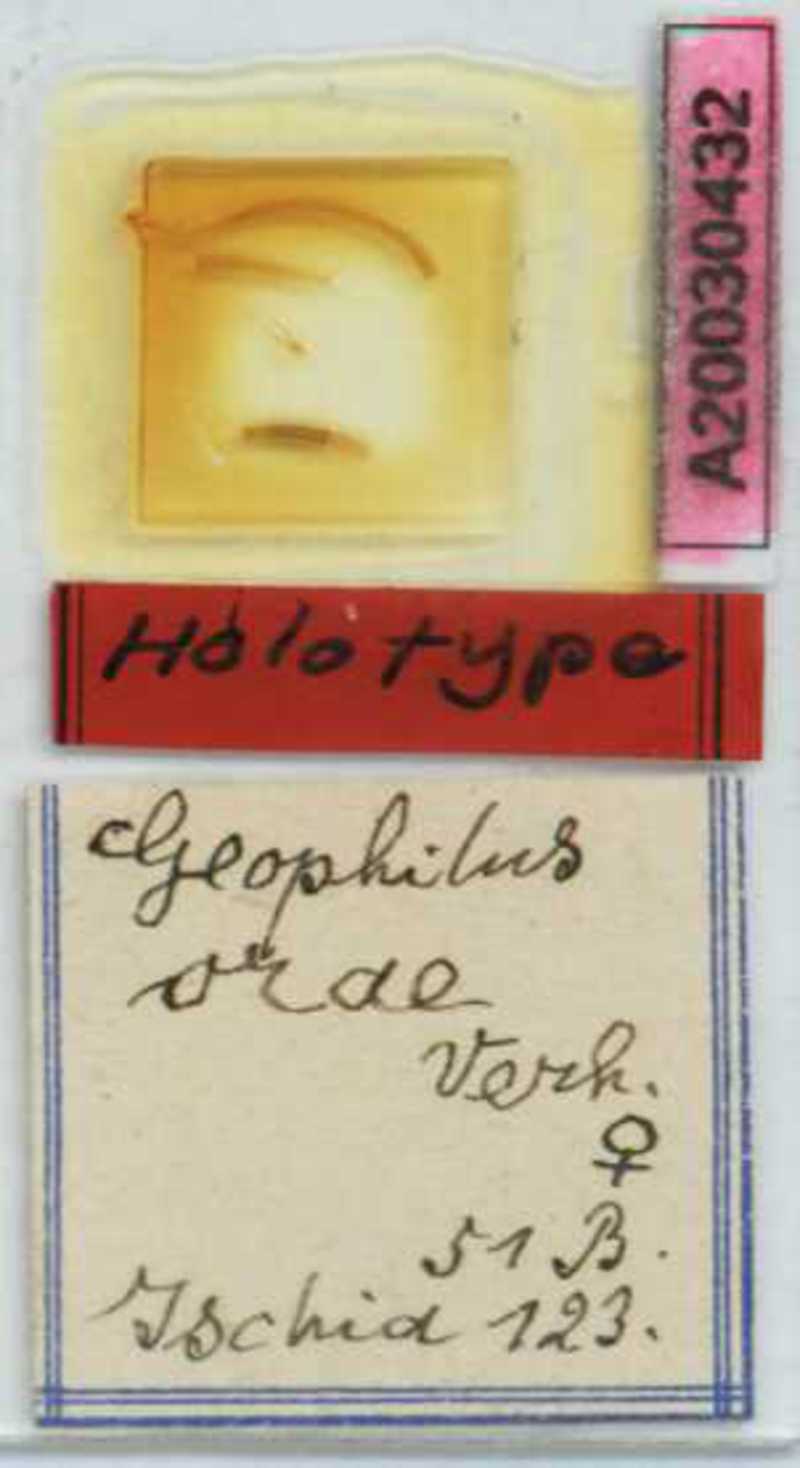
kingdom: Animalia
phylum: Arthropoda
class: Chilopoda
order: Geophilomorpha
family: Geophilidae
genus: Geophilus
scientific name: Geophilus orae
